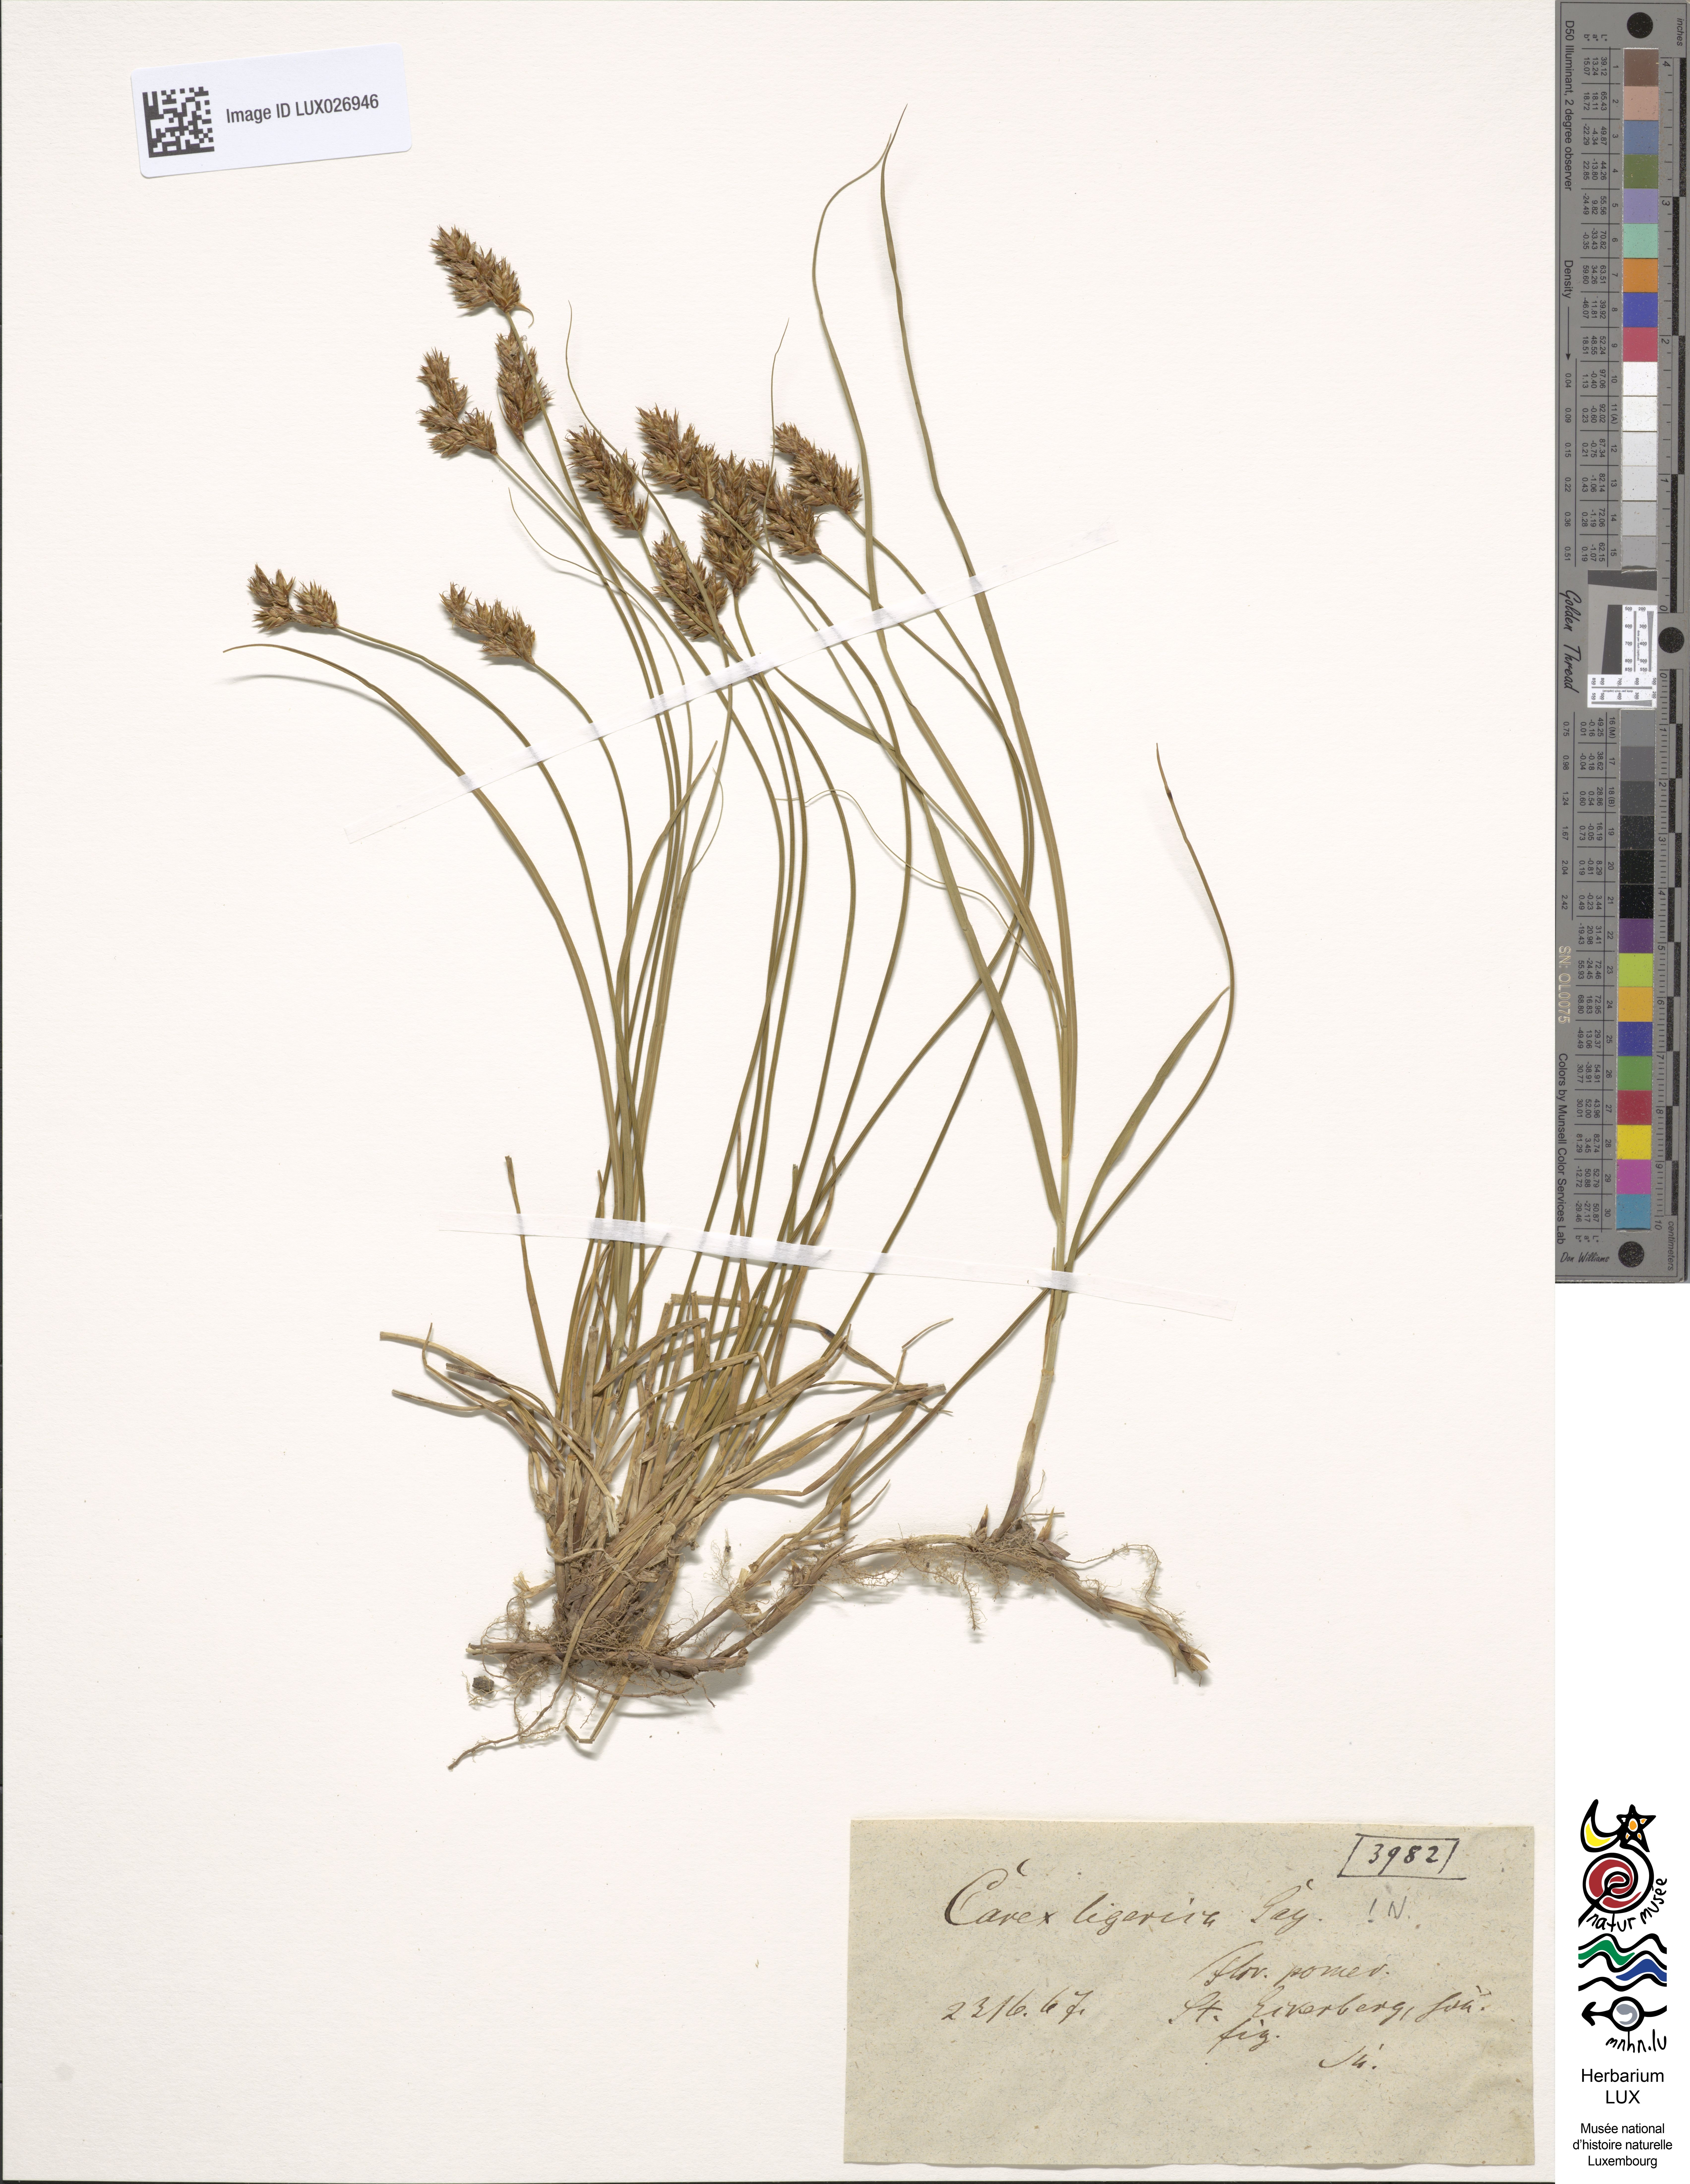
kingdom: Plantae
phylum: Tracheophyta
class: Liliopsida
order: Poales
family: Cyperaceae
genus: Carex
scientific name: Carex colchica
